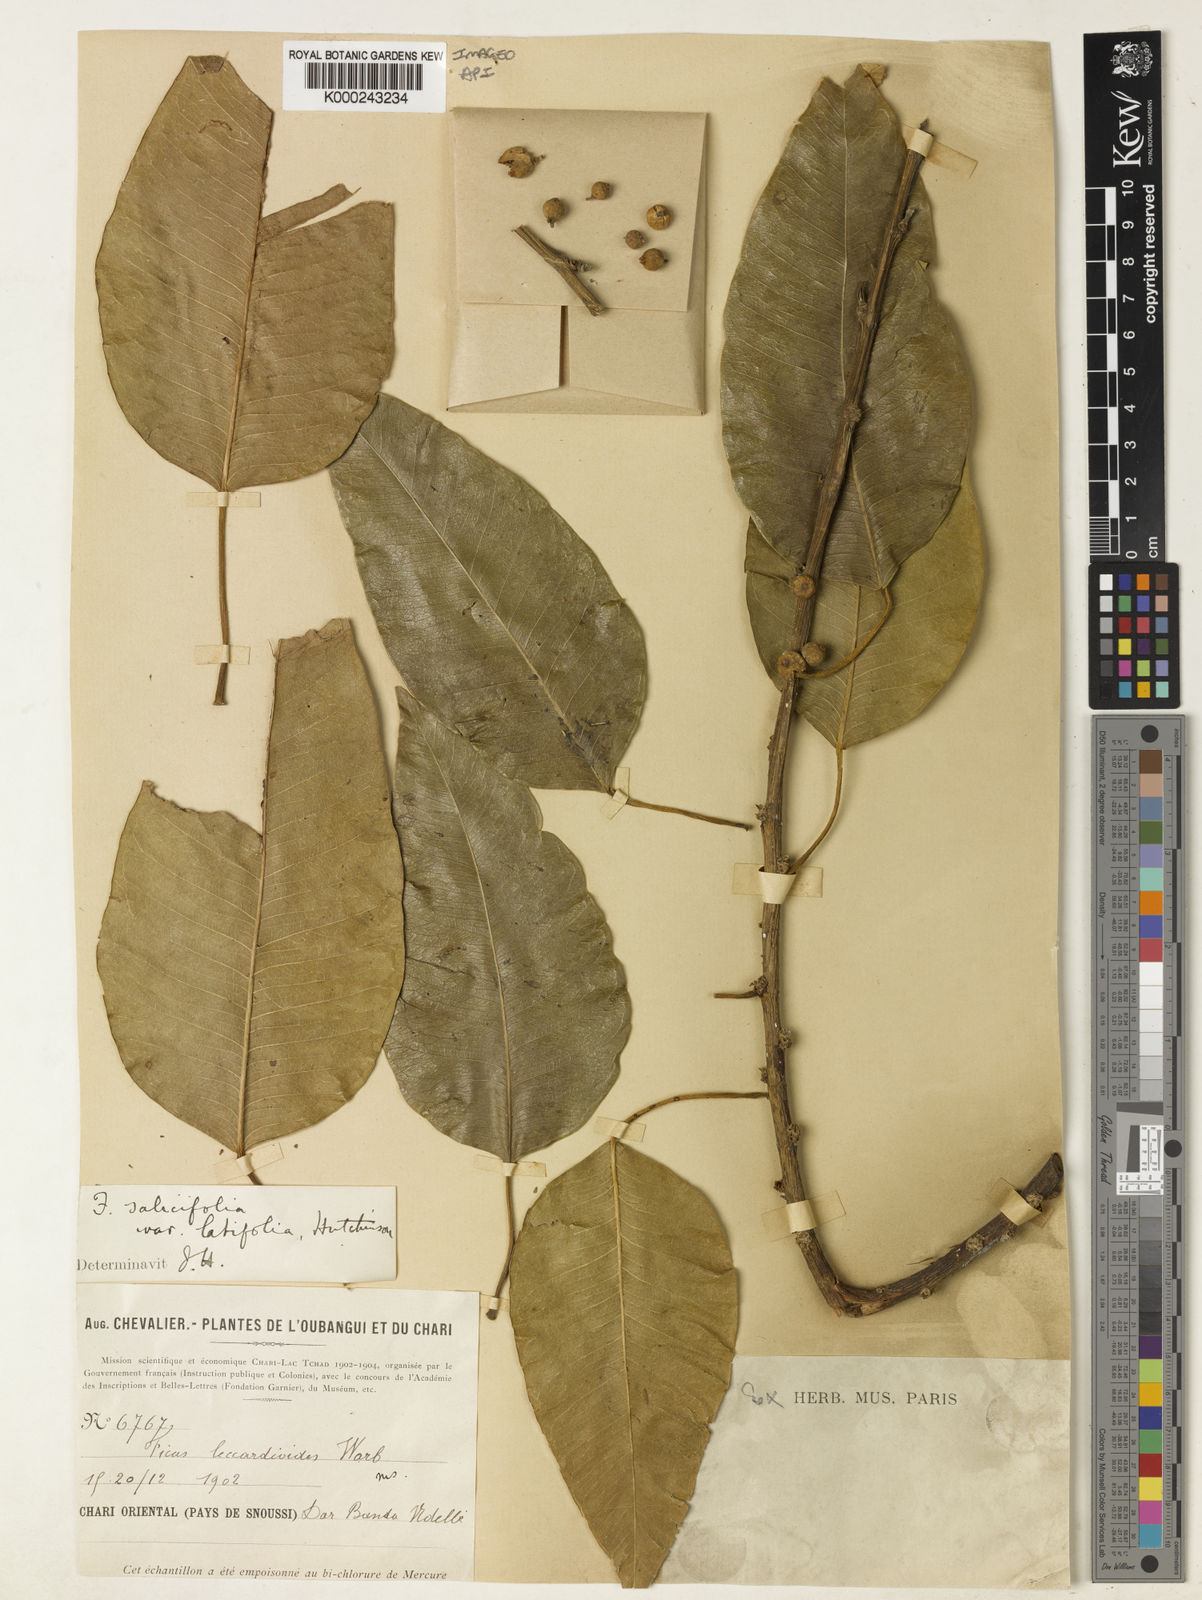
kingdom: Plantae
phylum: Tracheophyta
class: Magnoliopsida
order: Rosales
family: Moraceae
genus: Ficus
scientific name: Ficus salicifolia
